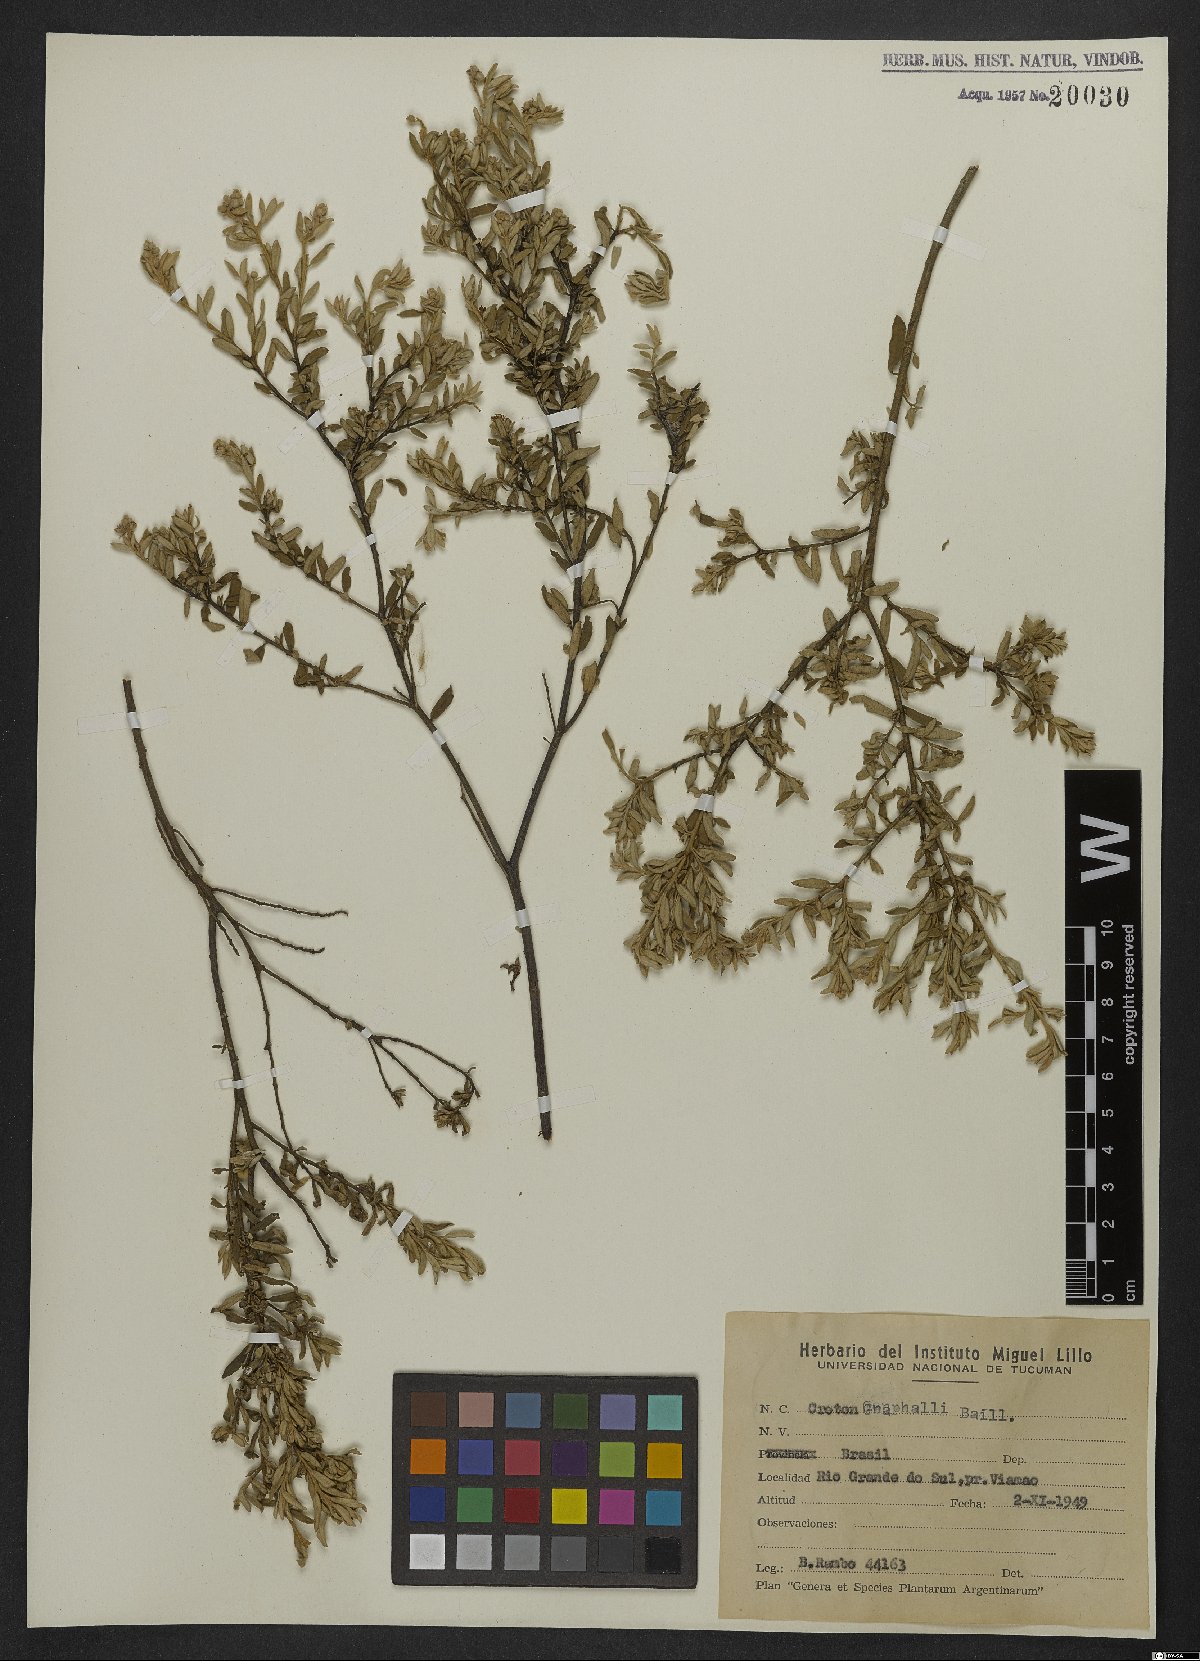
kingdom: Plantae
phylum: Tracheophyta
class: Magnoliopsida
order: Malpighiales
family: Euphorbiaceae
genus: Croton
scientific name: Croton gnaphalii
